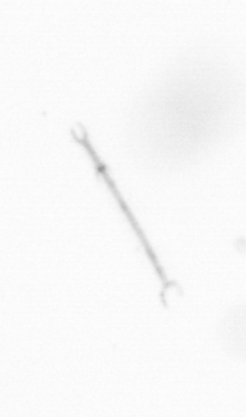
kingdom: Chromista
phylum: Ochrophyta
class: Bacillariophyceae
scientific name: Bacillariophyceae
